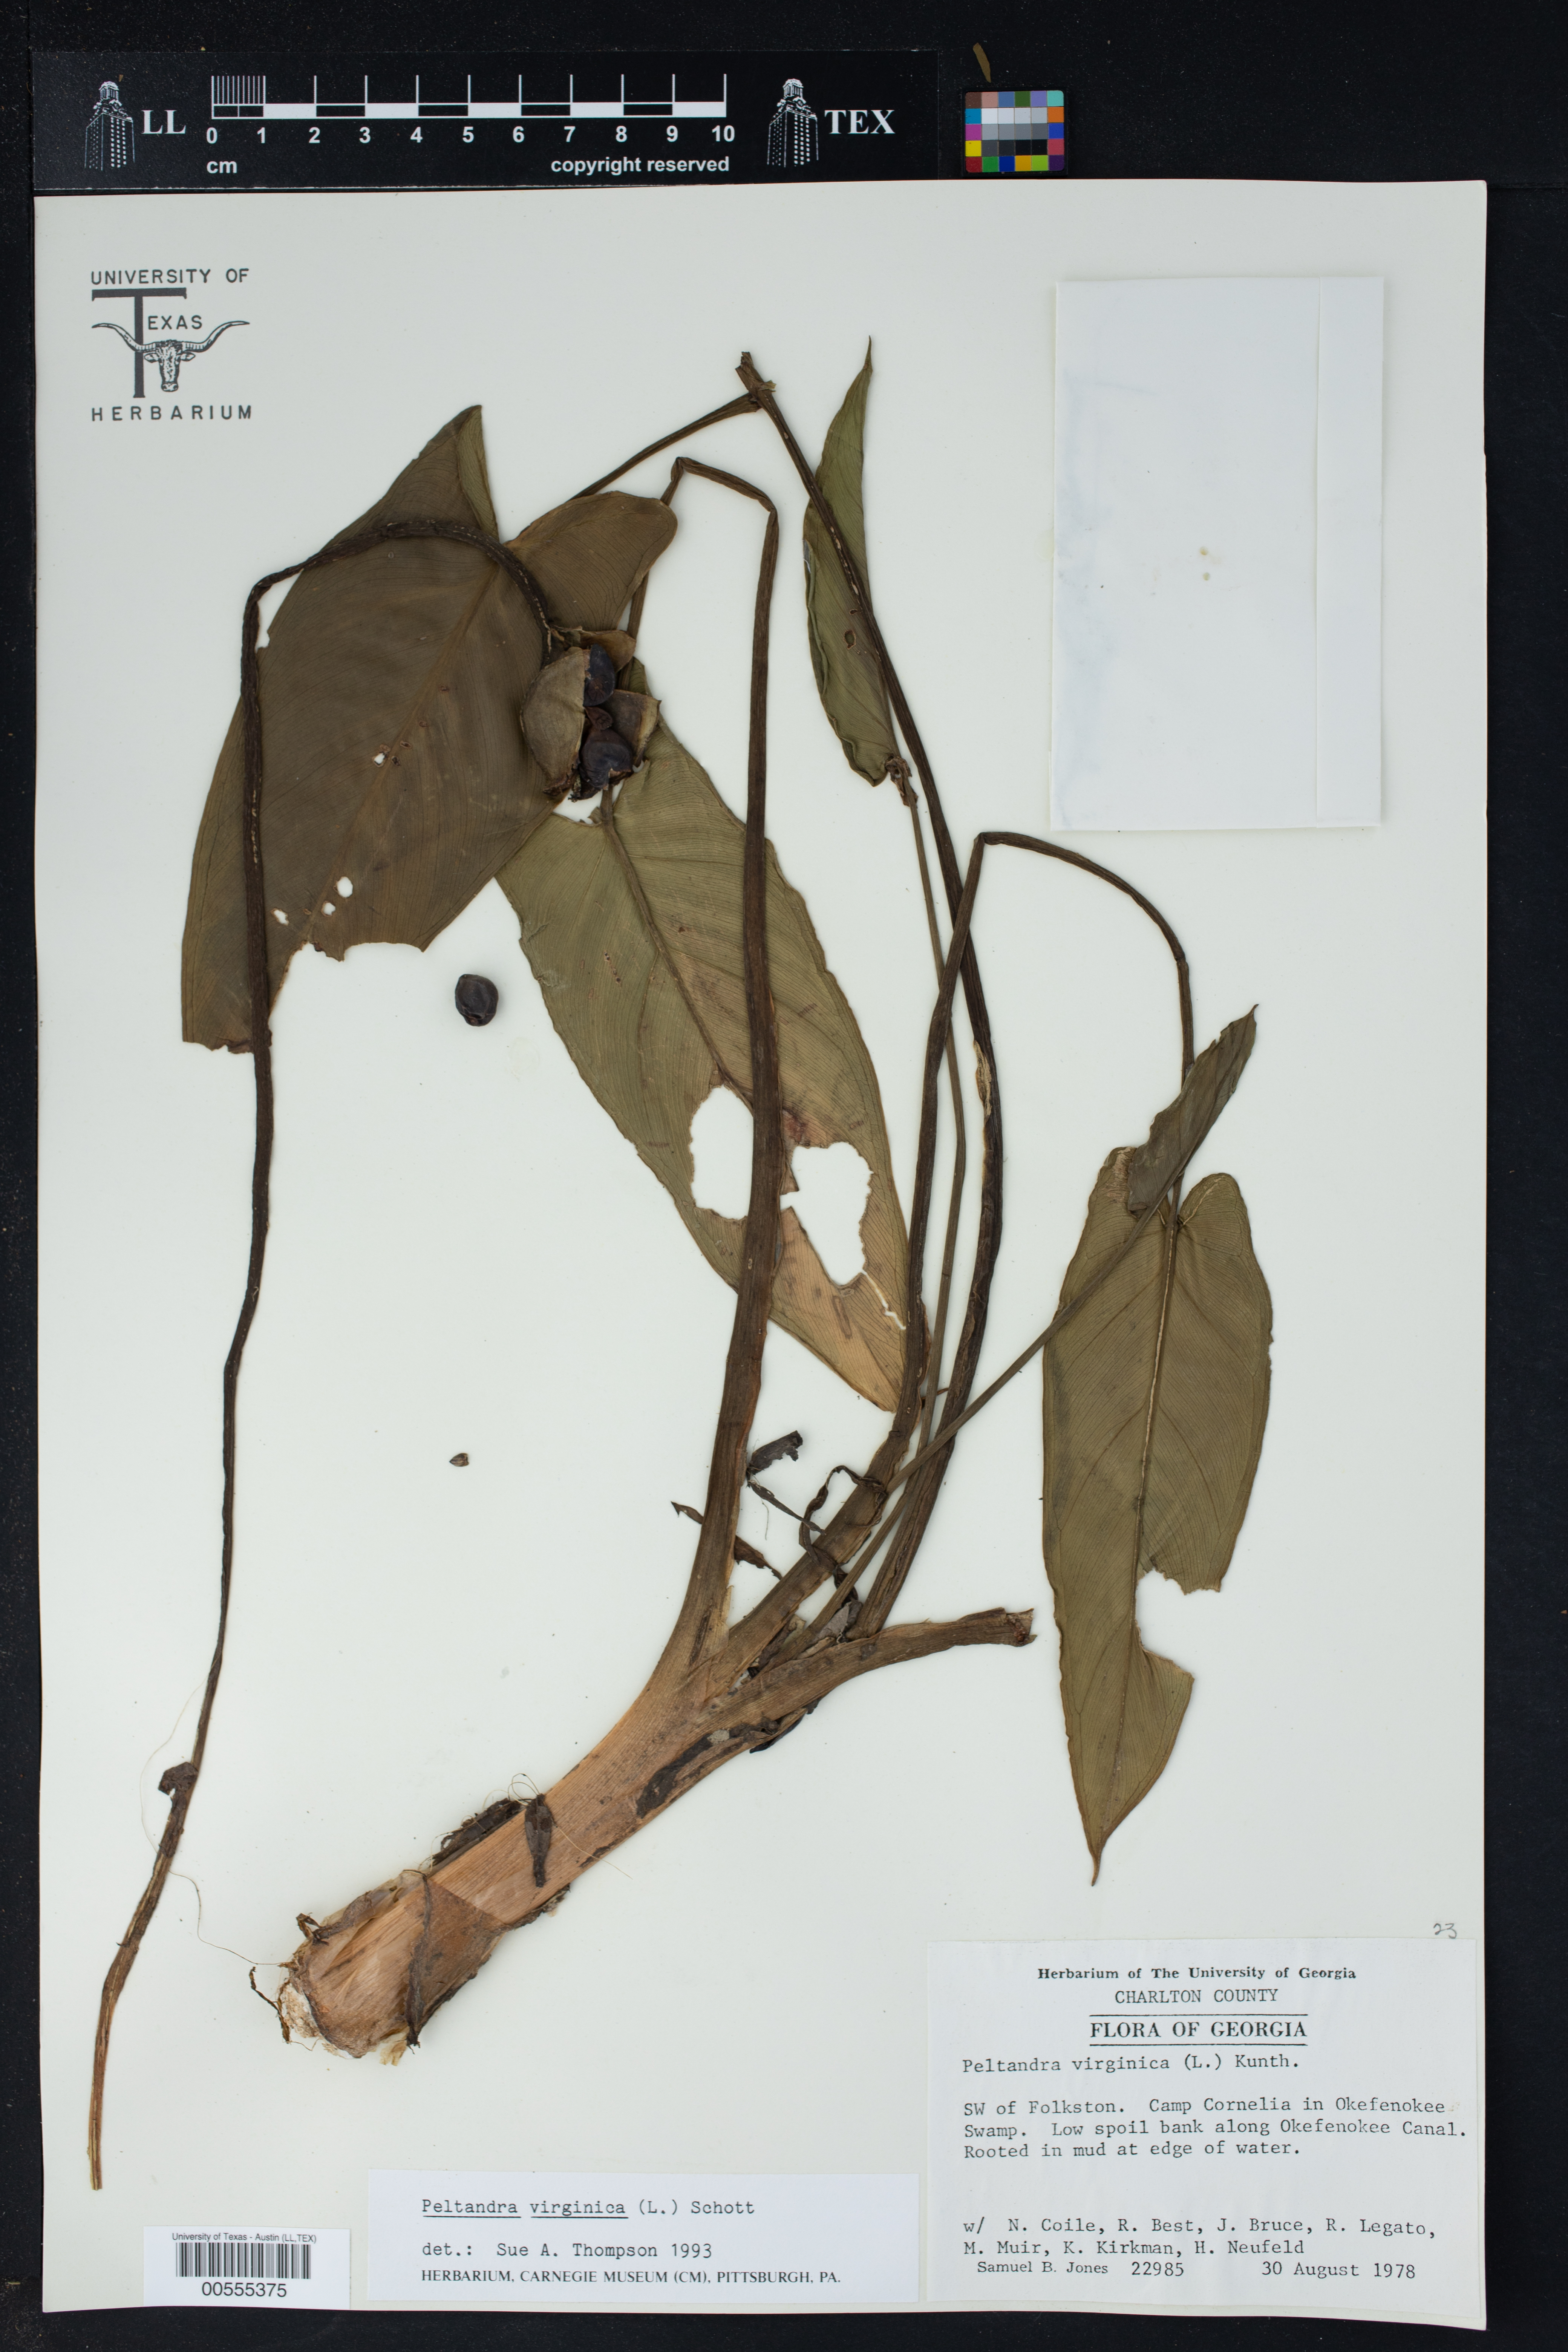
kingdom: Plantae
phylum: Tracheophyta
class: Liliopsida
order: Alismatales
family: Araceae
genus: Peltandra
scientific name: Peltandra virginica
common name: Arrow arum
